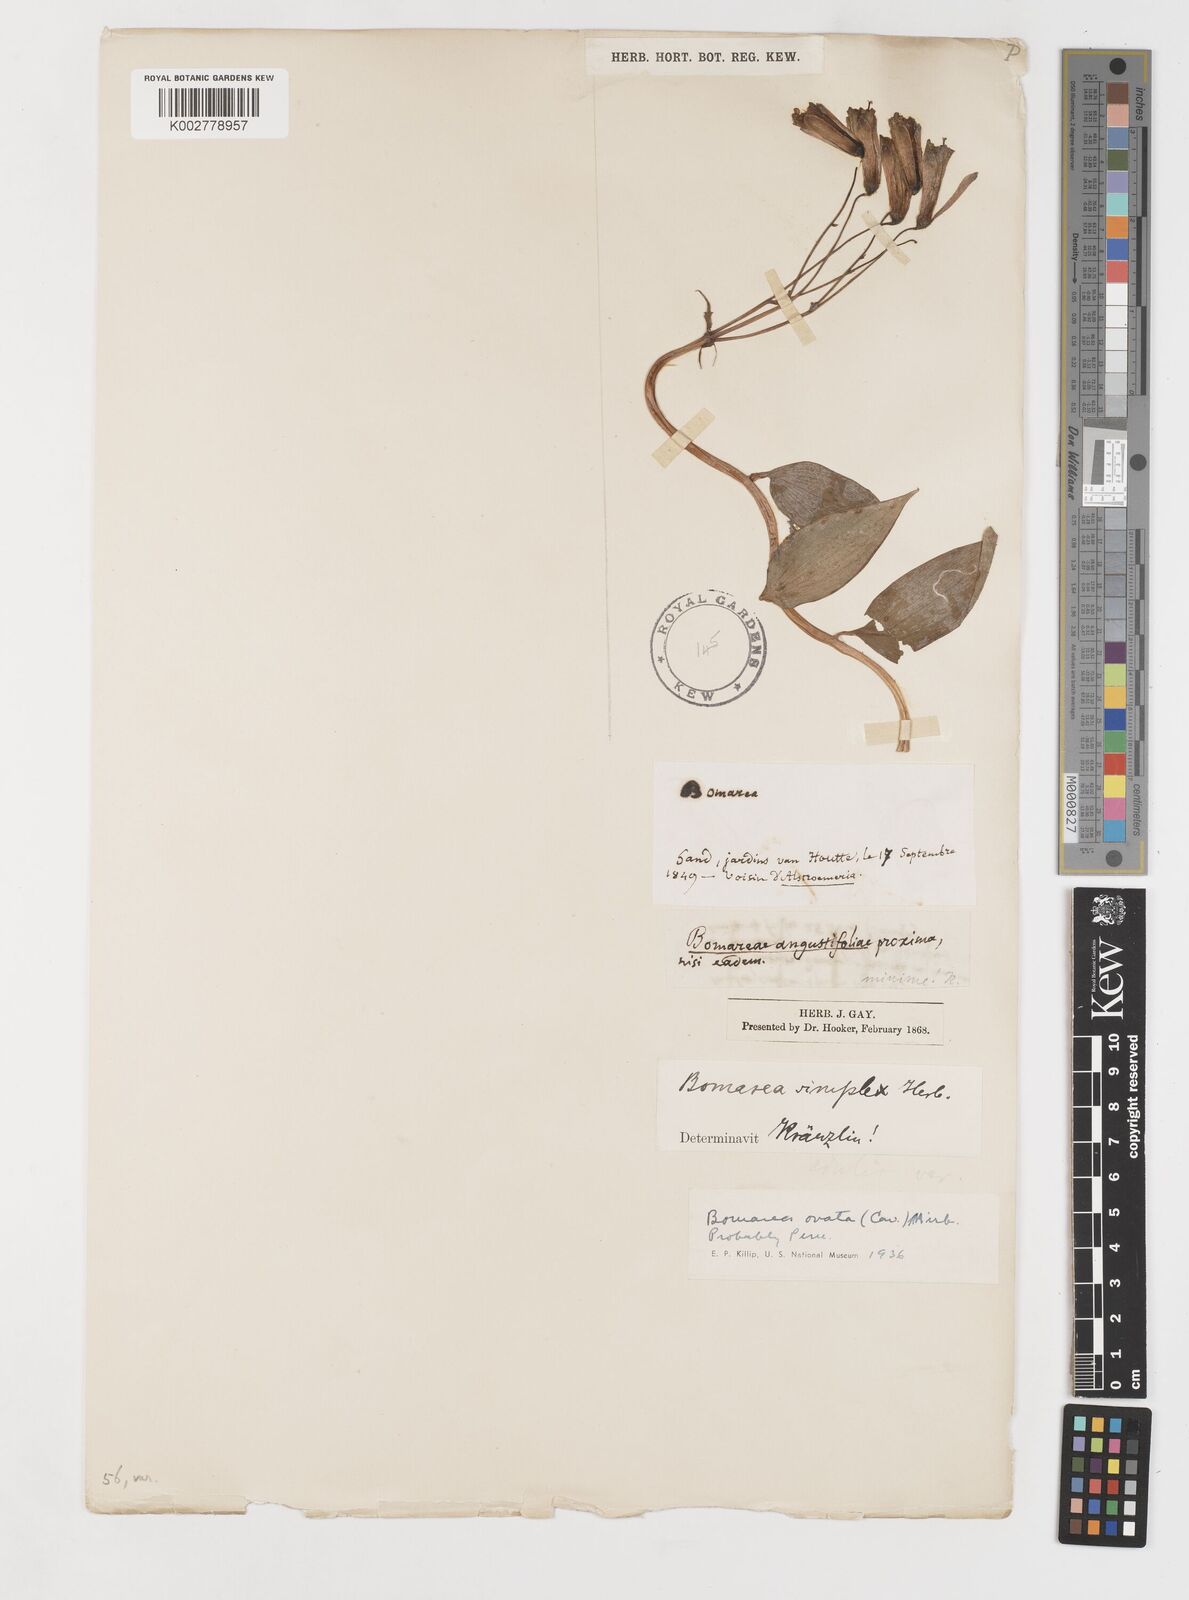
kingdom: Plantae
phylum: Tracheophyta
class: Liliopsida
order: Liliales
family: Alstroemeriaceae
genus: Bomarea
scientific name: Bomarea ovata
